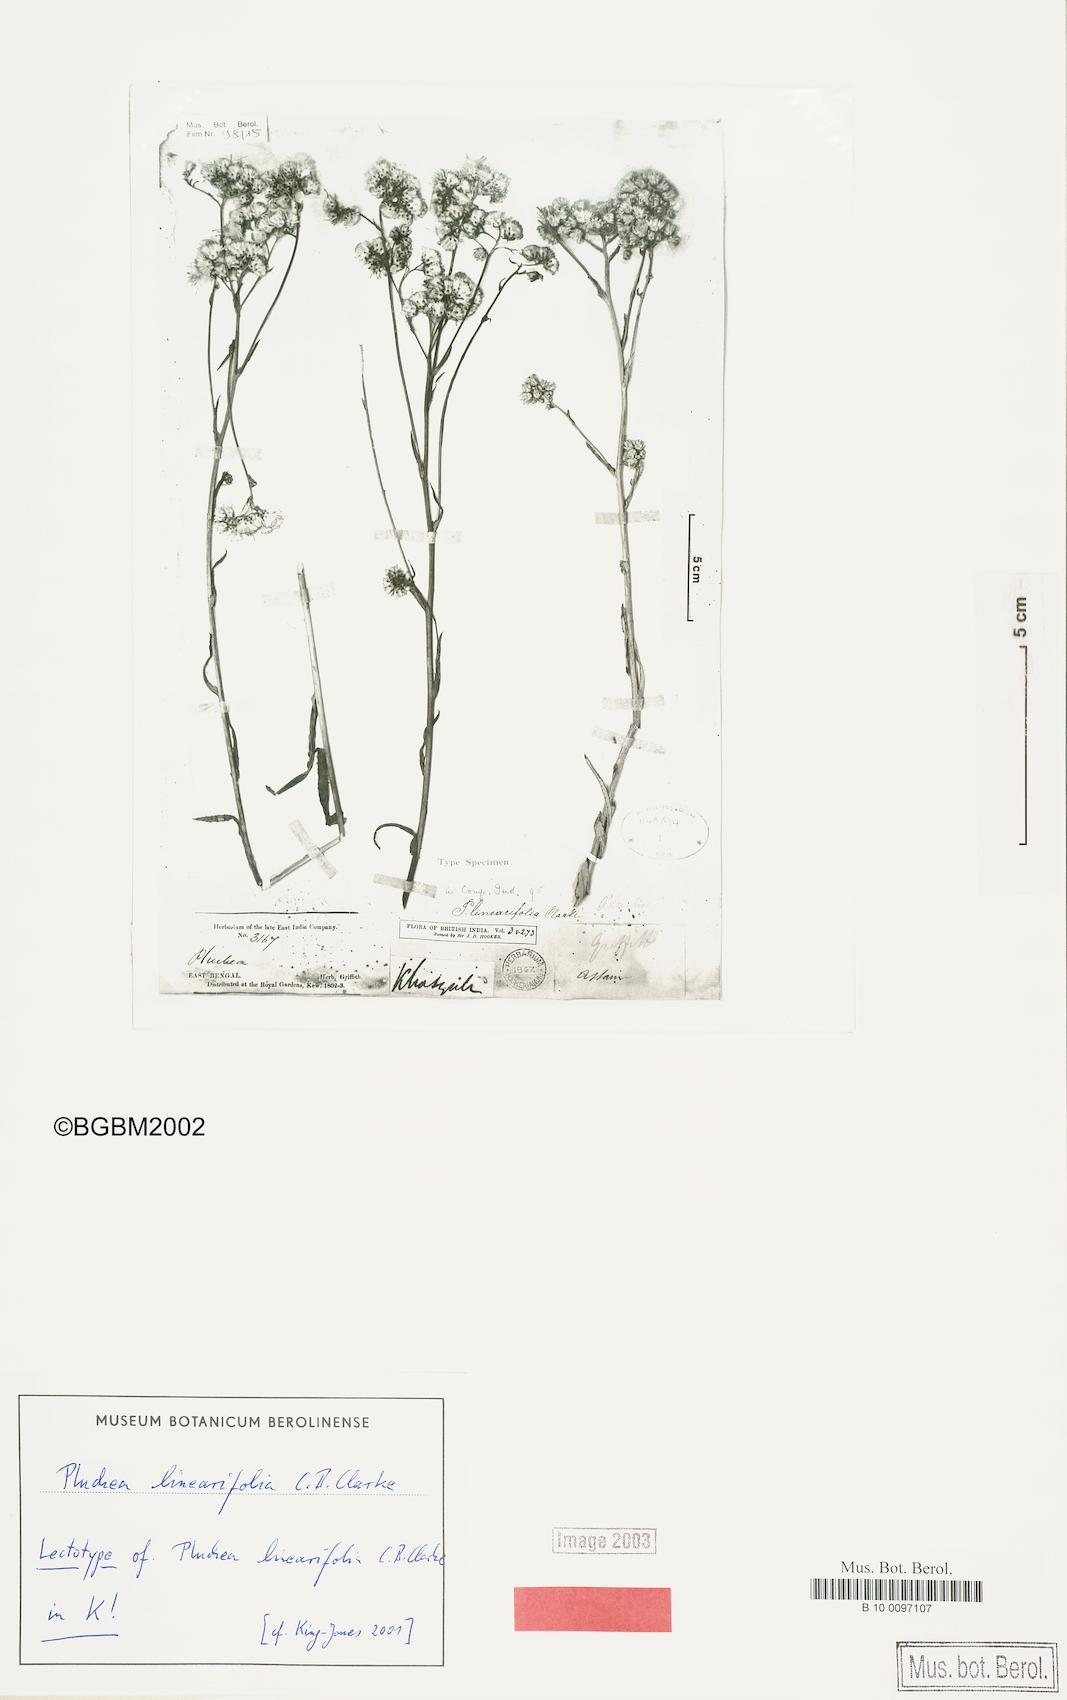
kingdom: Plantae
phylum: Tracheophyta
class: Magnoliopsida
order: Asterales
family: Asteraceae
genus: Pluchea
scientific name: Pluchea linearifolia
